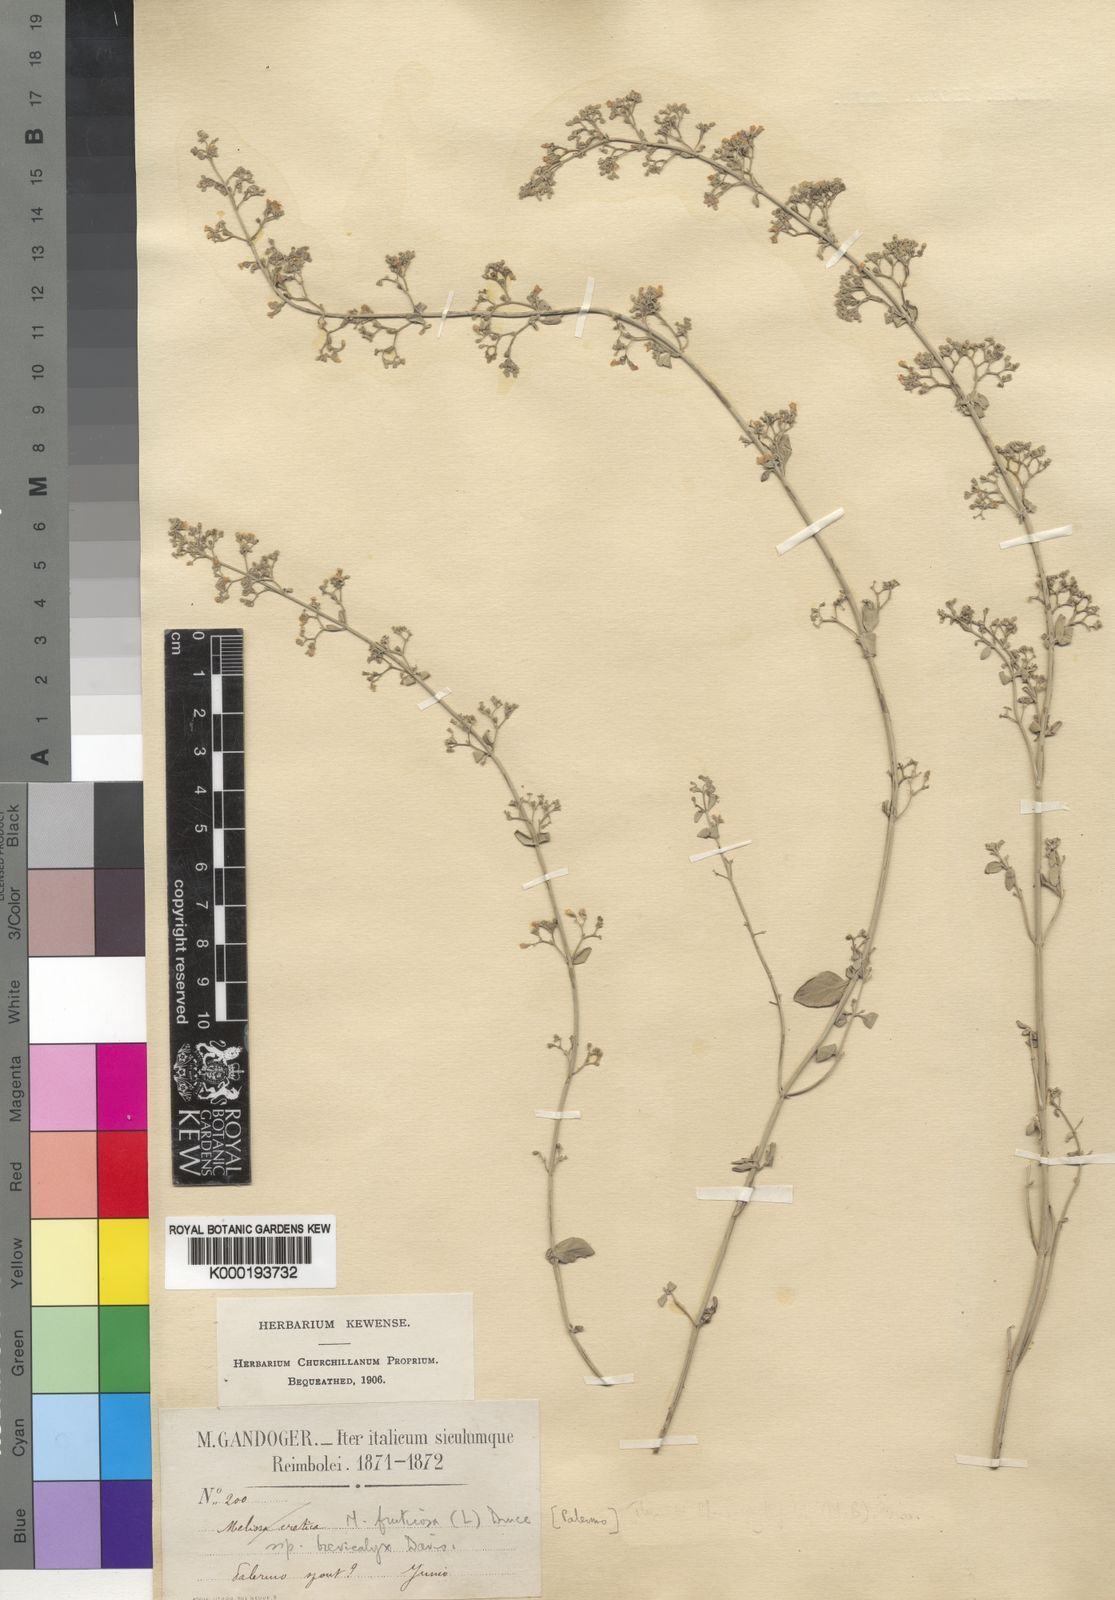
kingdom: Plantae
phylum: Tracheophyta
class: Magnoliopsida
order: Lamiales
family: Lamiaceae
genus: Clinopodium
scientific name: Clinopodium serpyllifolium
